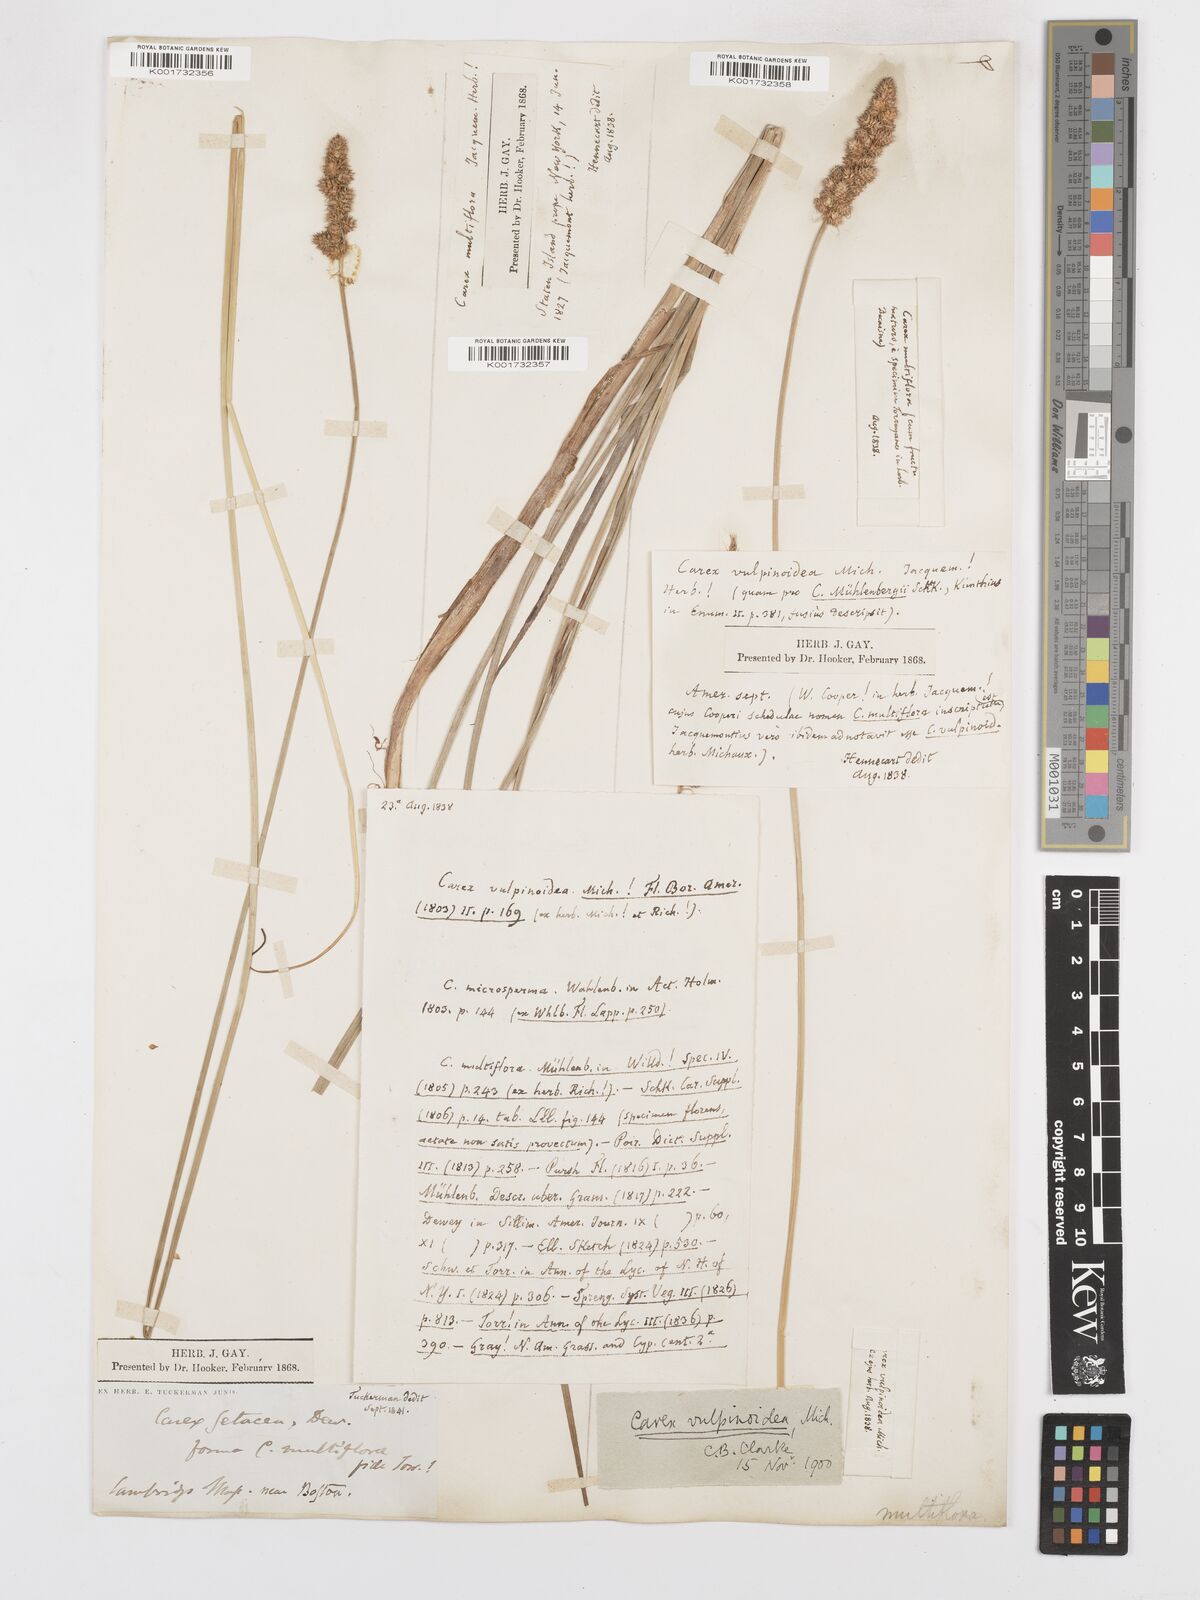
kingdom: Plantae
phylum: Tracheophyta
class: Liliopsida
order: Poales
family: Cyperaceae
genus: Carex
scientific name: Carex vulpinoidea
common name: American fox-sedge
